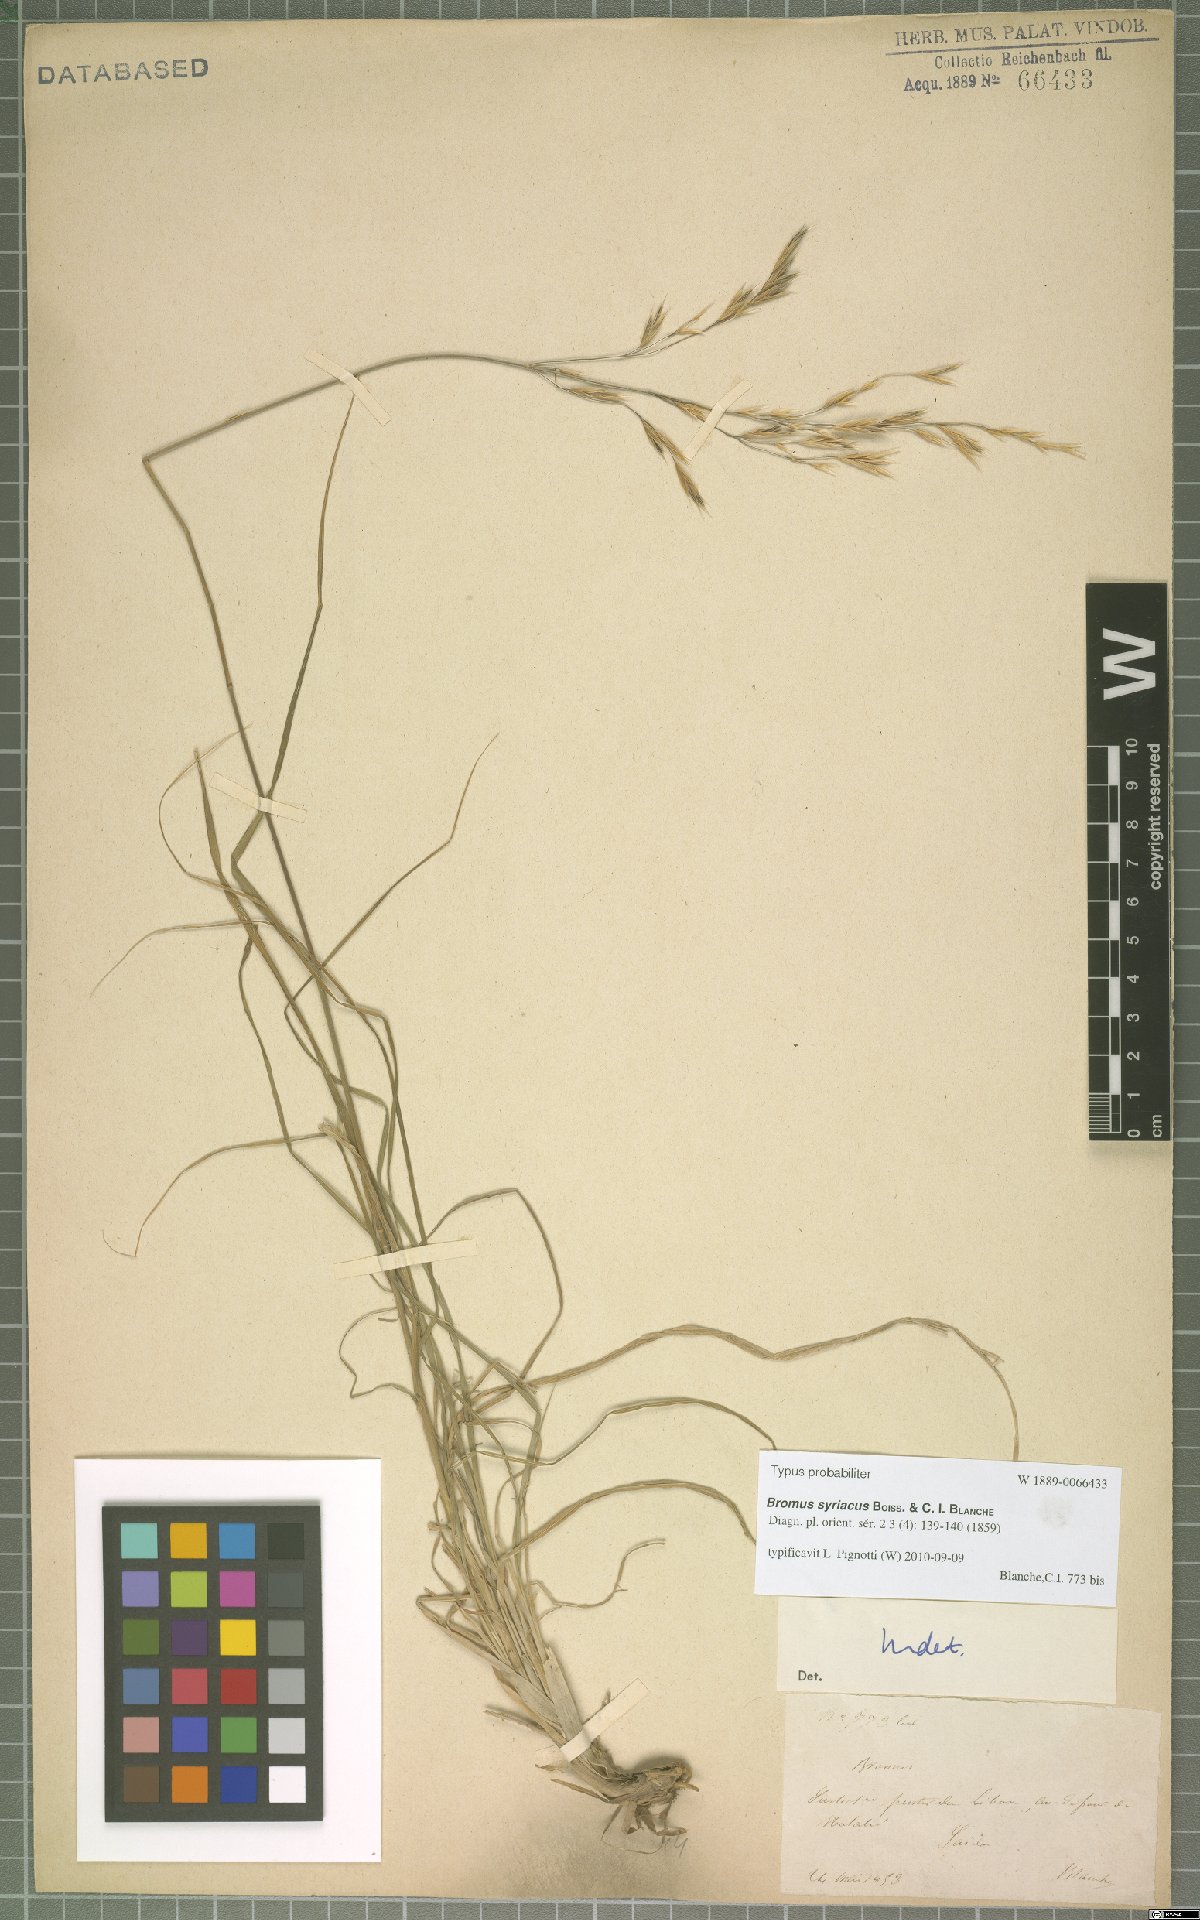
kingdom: Plantae
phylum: Tracheophyta
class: Liliopsida
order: Poales
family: Poaceae
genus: Bromus
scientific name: Bromus syriacus
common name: Syrian brome
